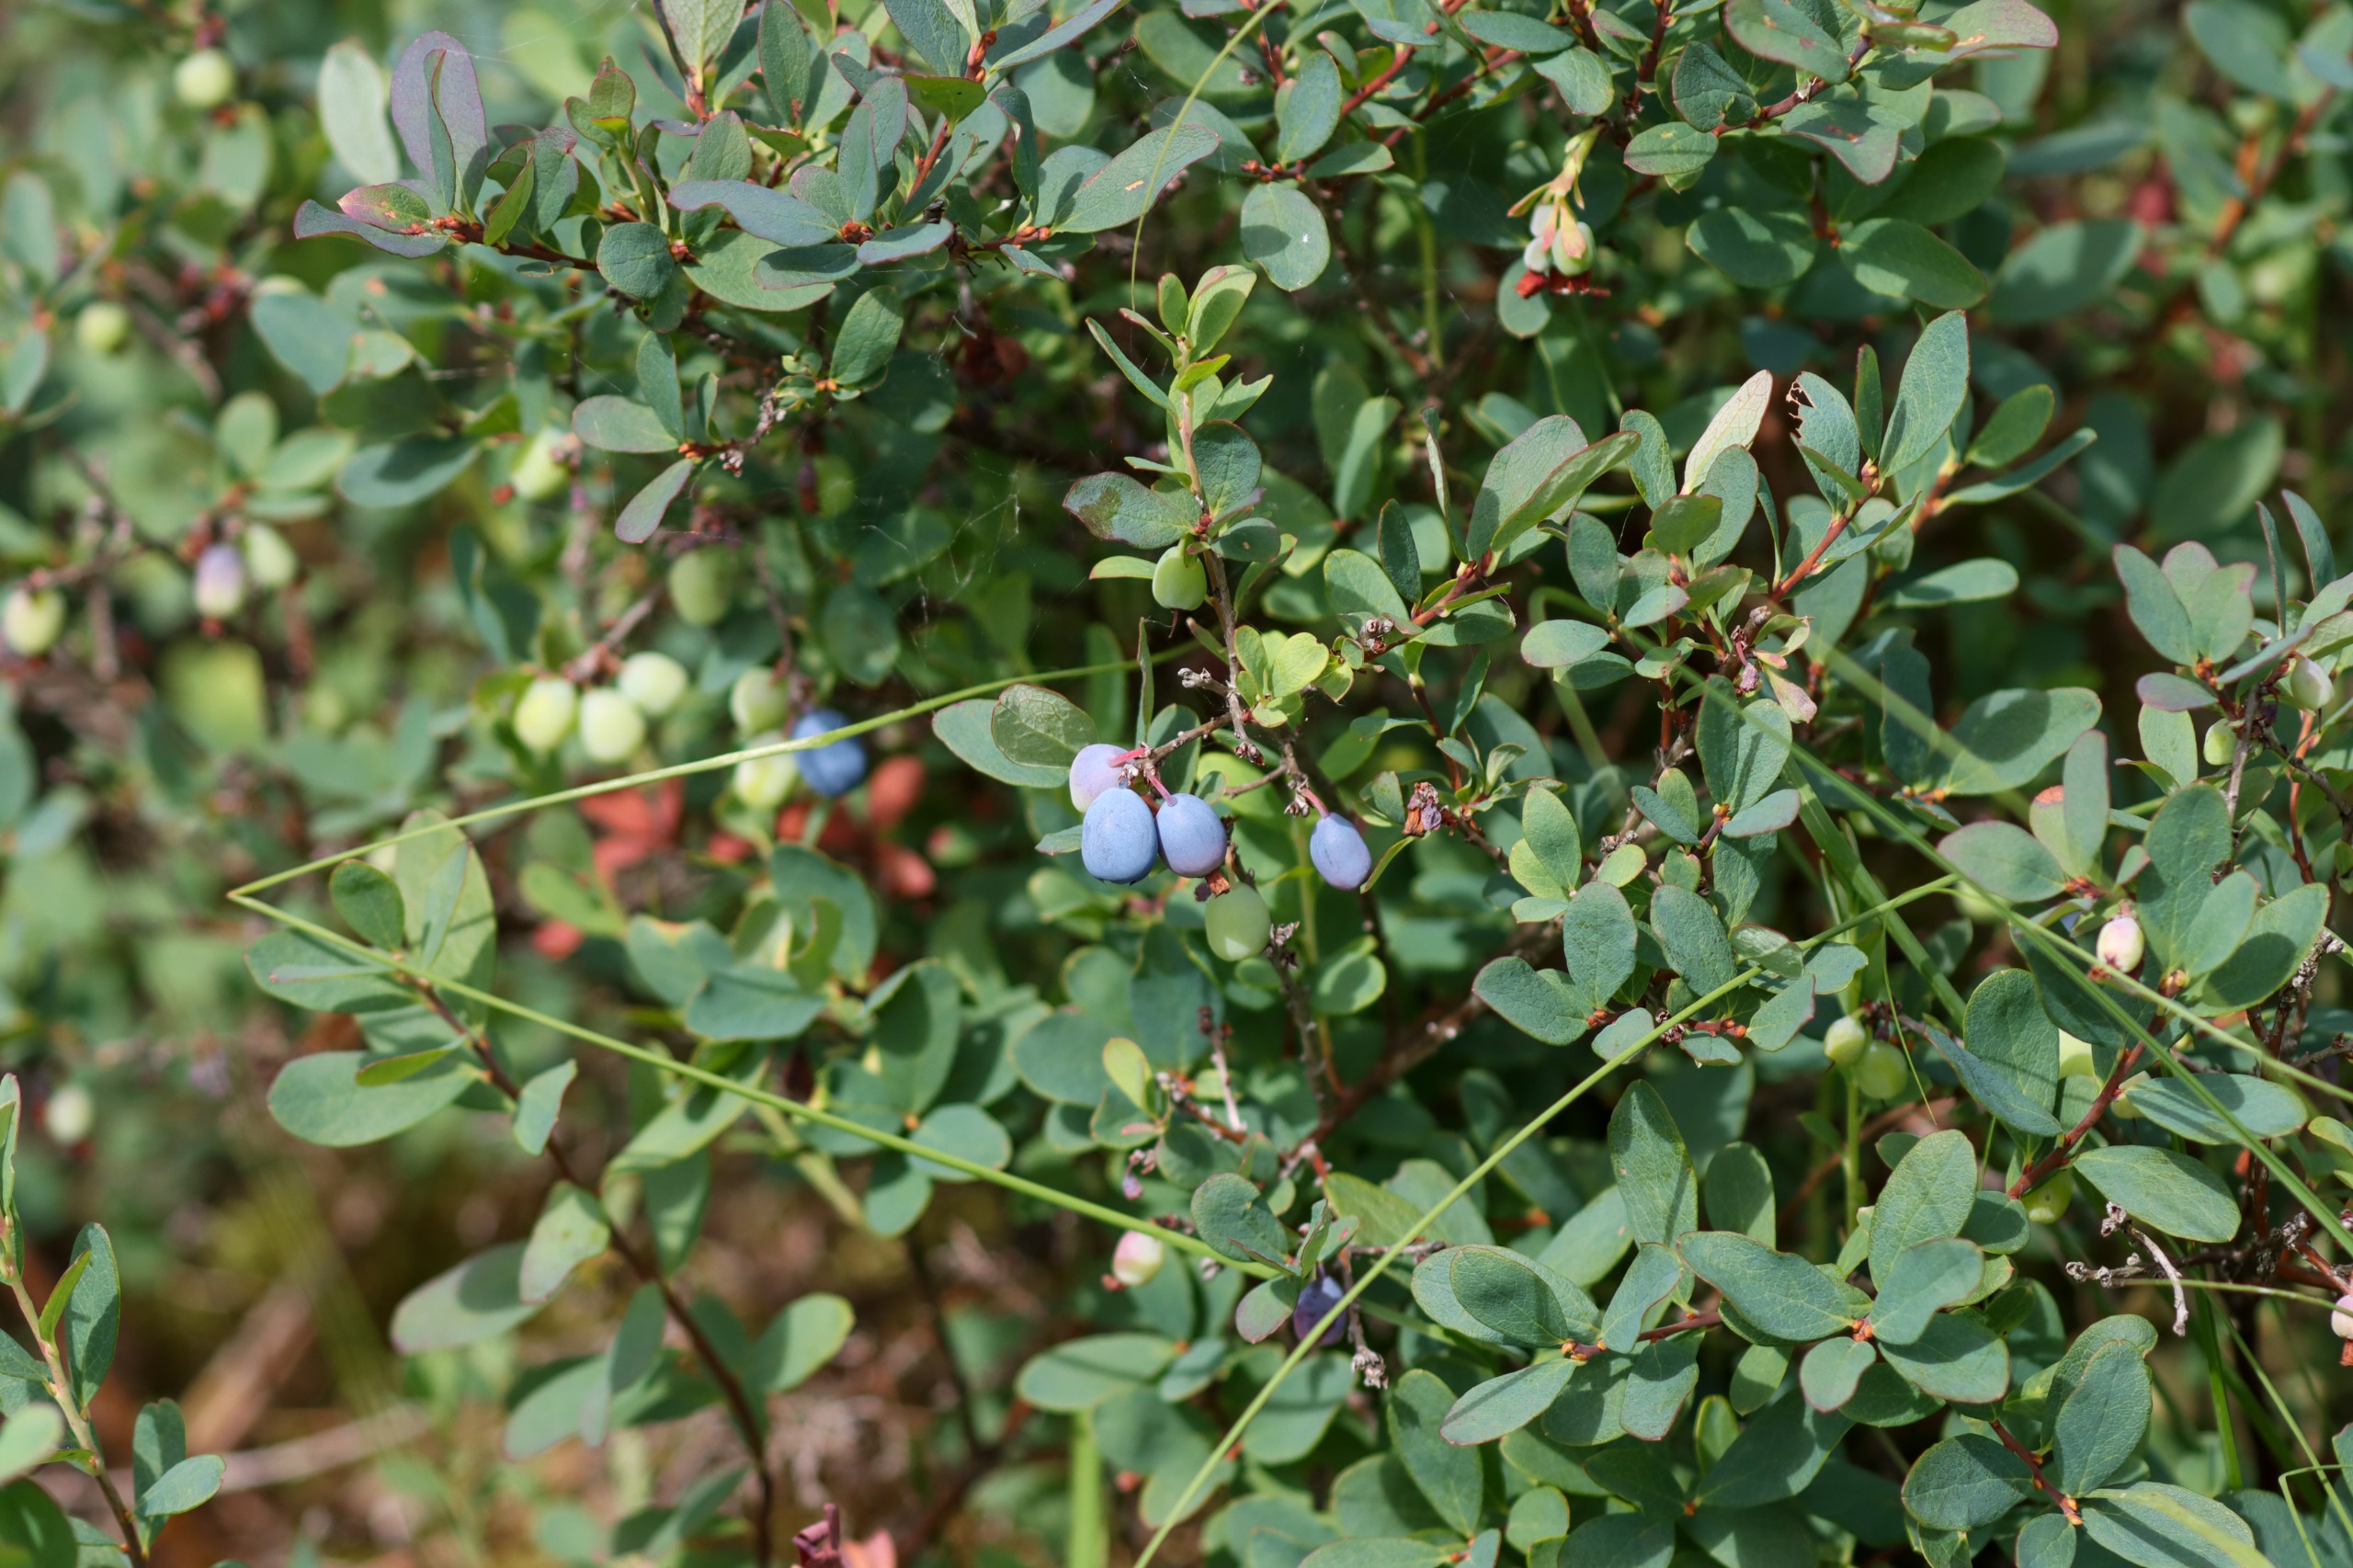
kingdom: Plantae
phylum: Tracheophyta
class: Magnoliopsida
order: Ericales
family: Ericaceae
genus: Vaccinium
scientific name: Vaccinium uliginosum
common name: Mose-bølle
